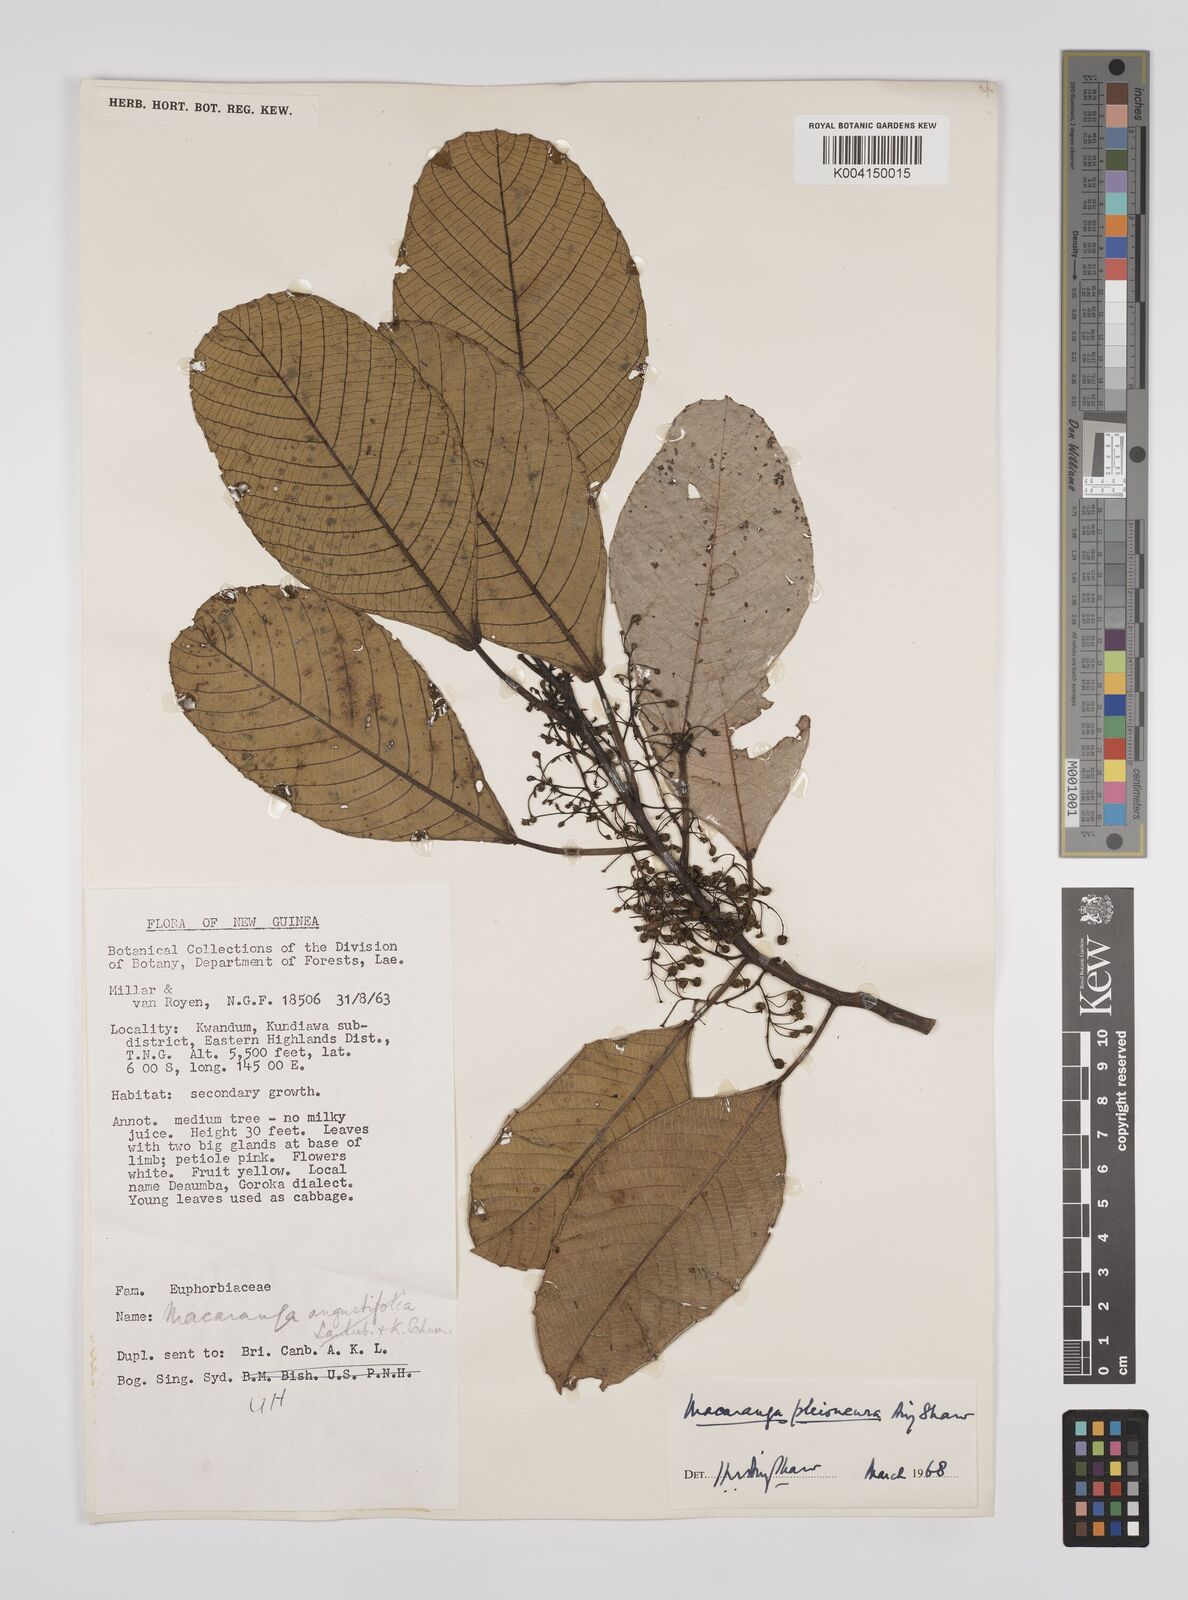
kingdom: Plantae
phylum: Tracheophyta
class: Magnoliopsida
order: Malpighiales
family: Euphorbiaceae
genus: Macaranga
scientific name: Macaranga pleioneura
